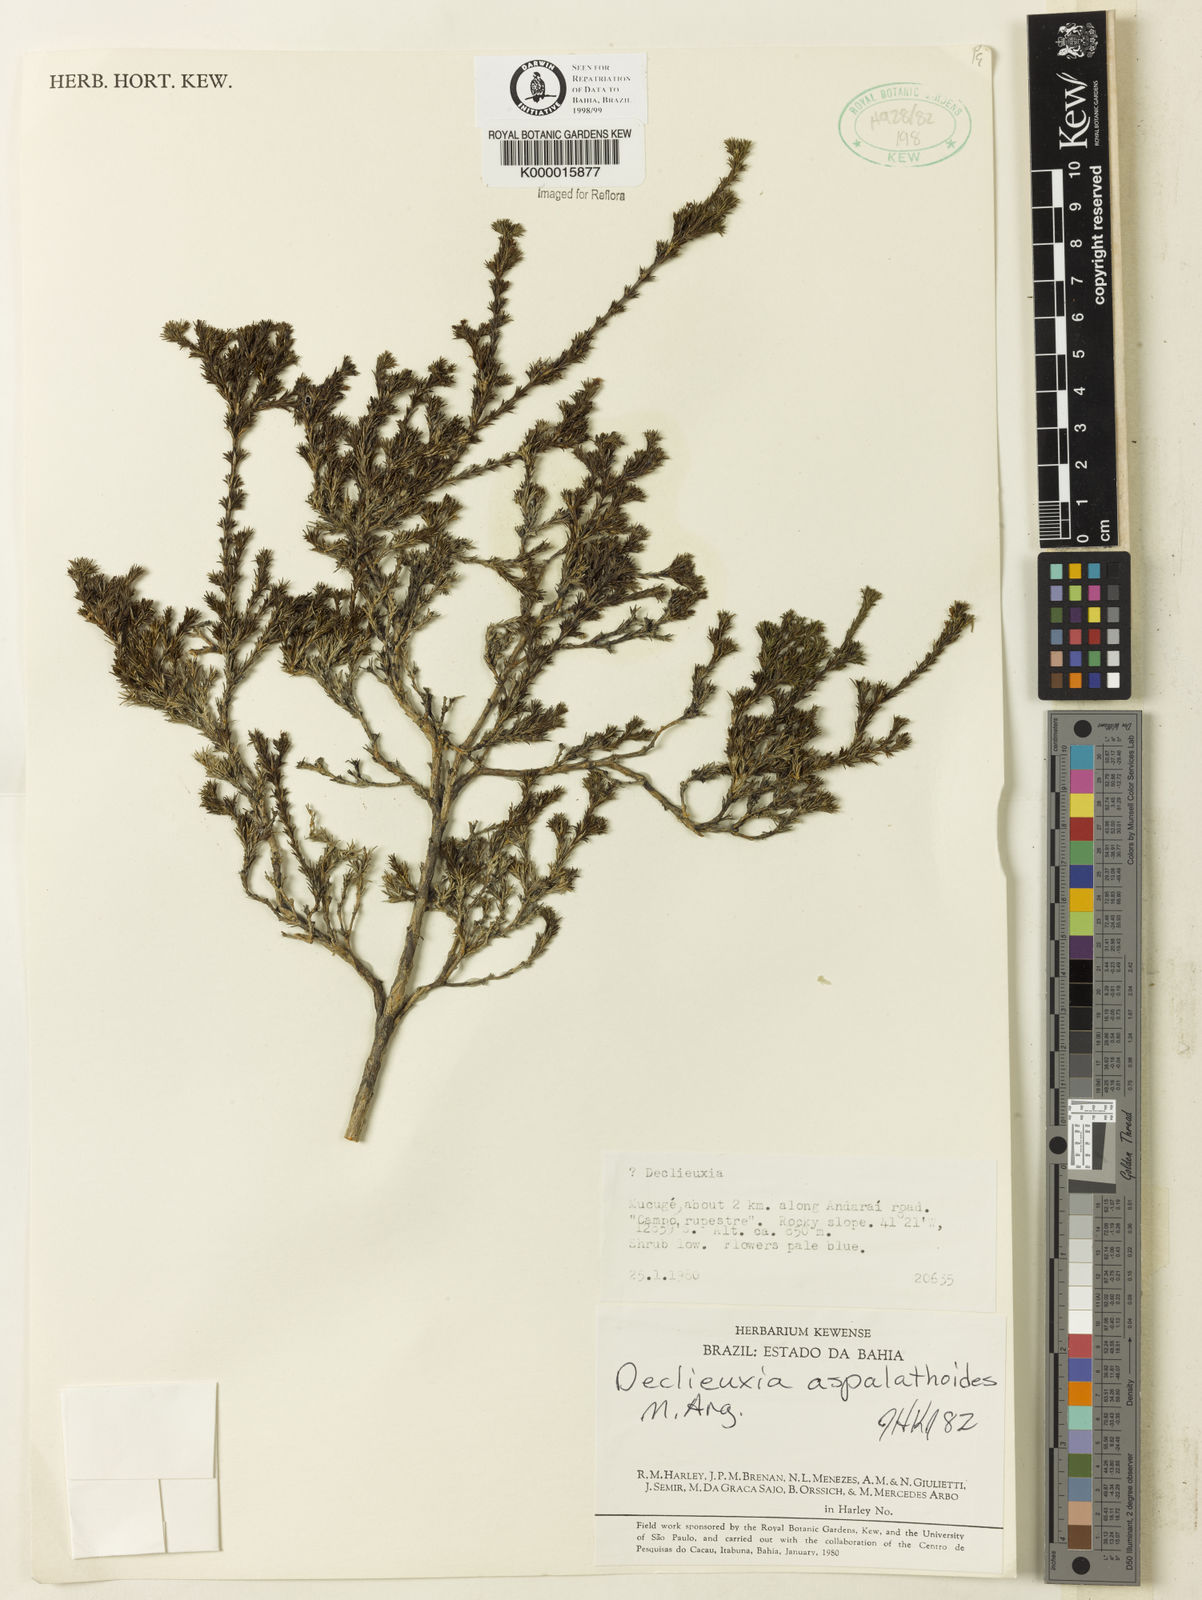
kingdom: Plantae
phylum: Tracheophyta
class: Magnoliopsida
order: Gentianales
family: Rubiaceae
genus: Declieuxia
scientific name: Declieuxia aspalathoides
